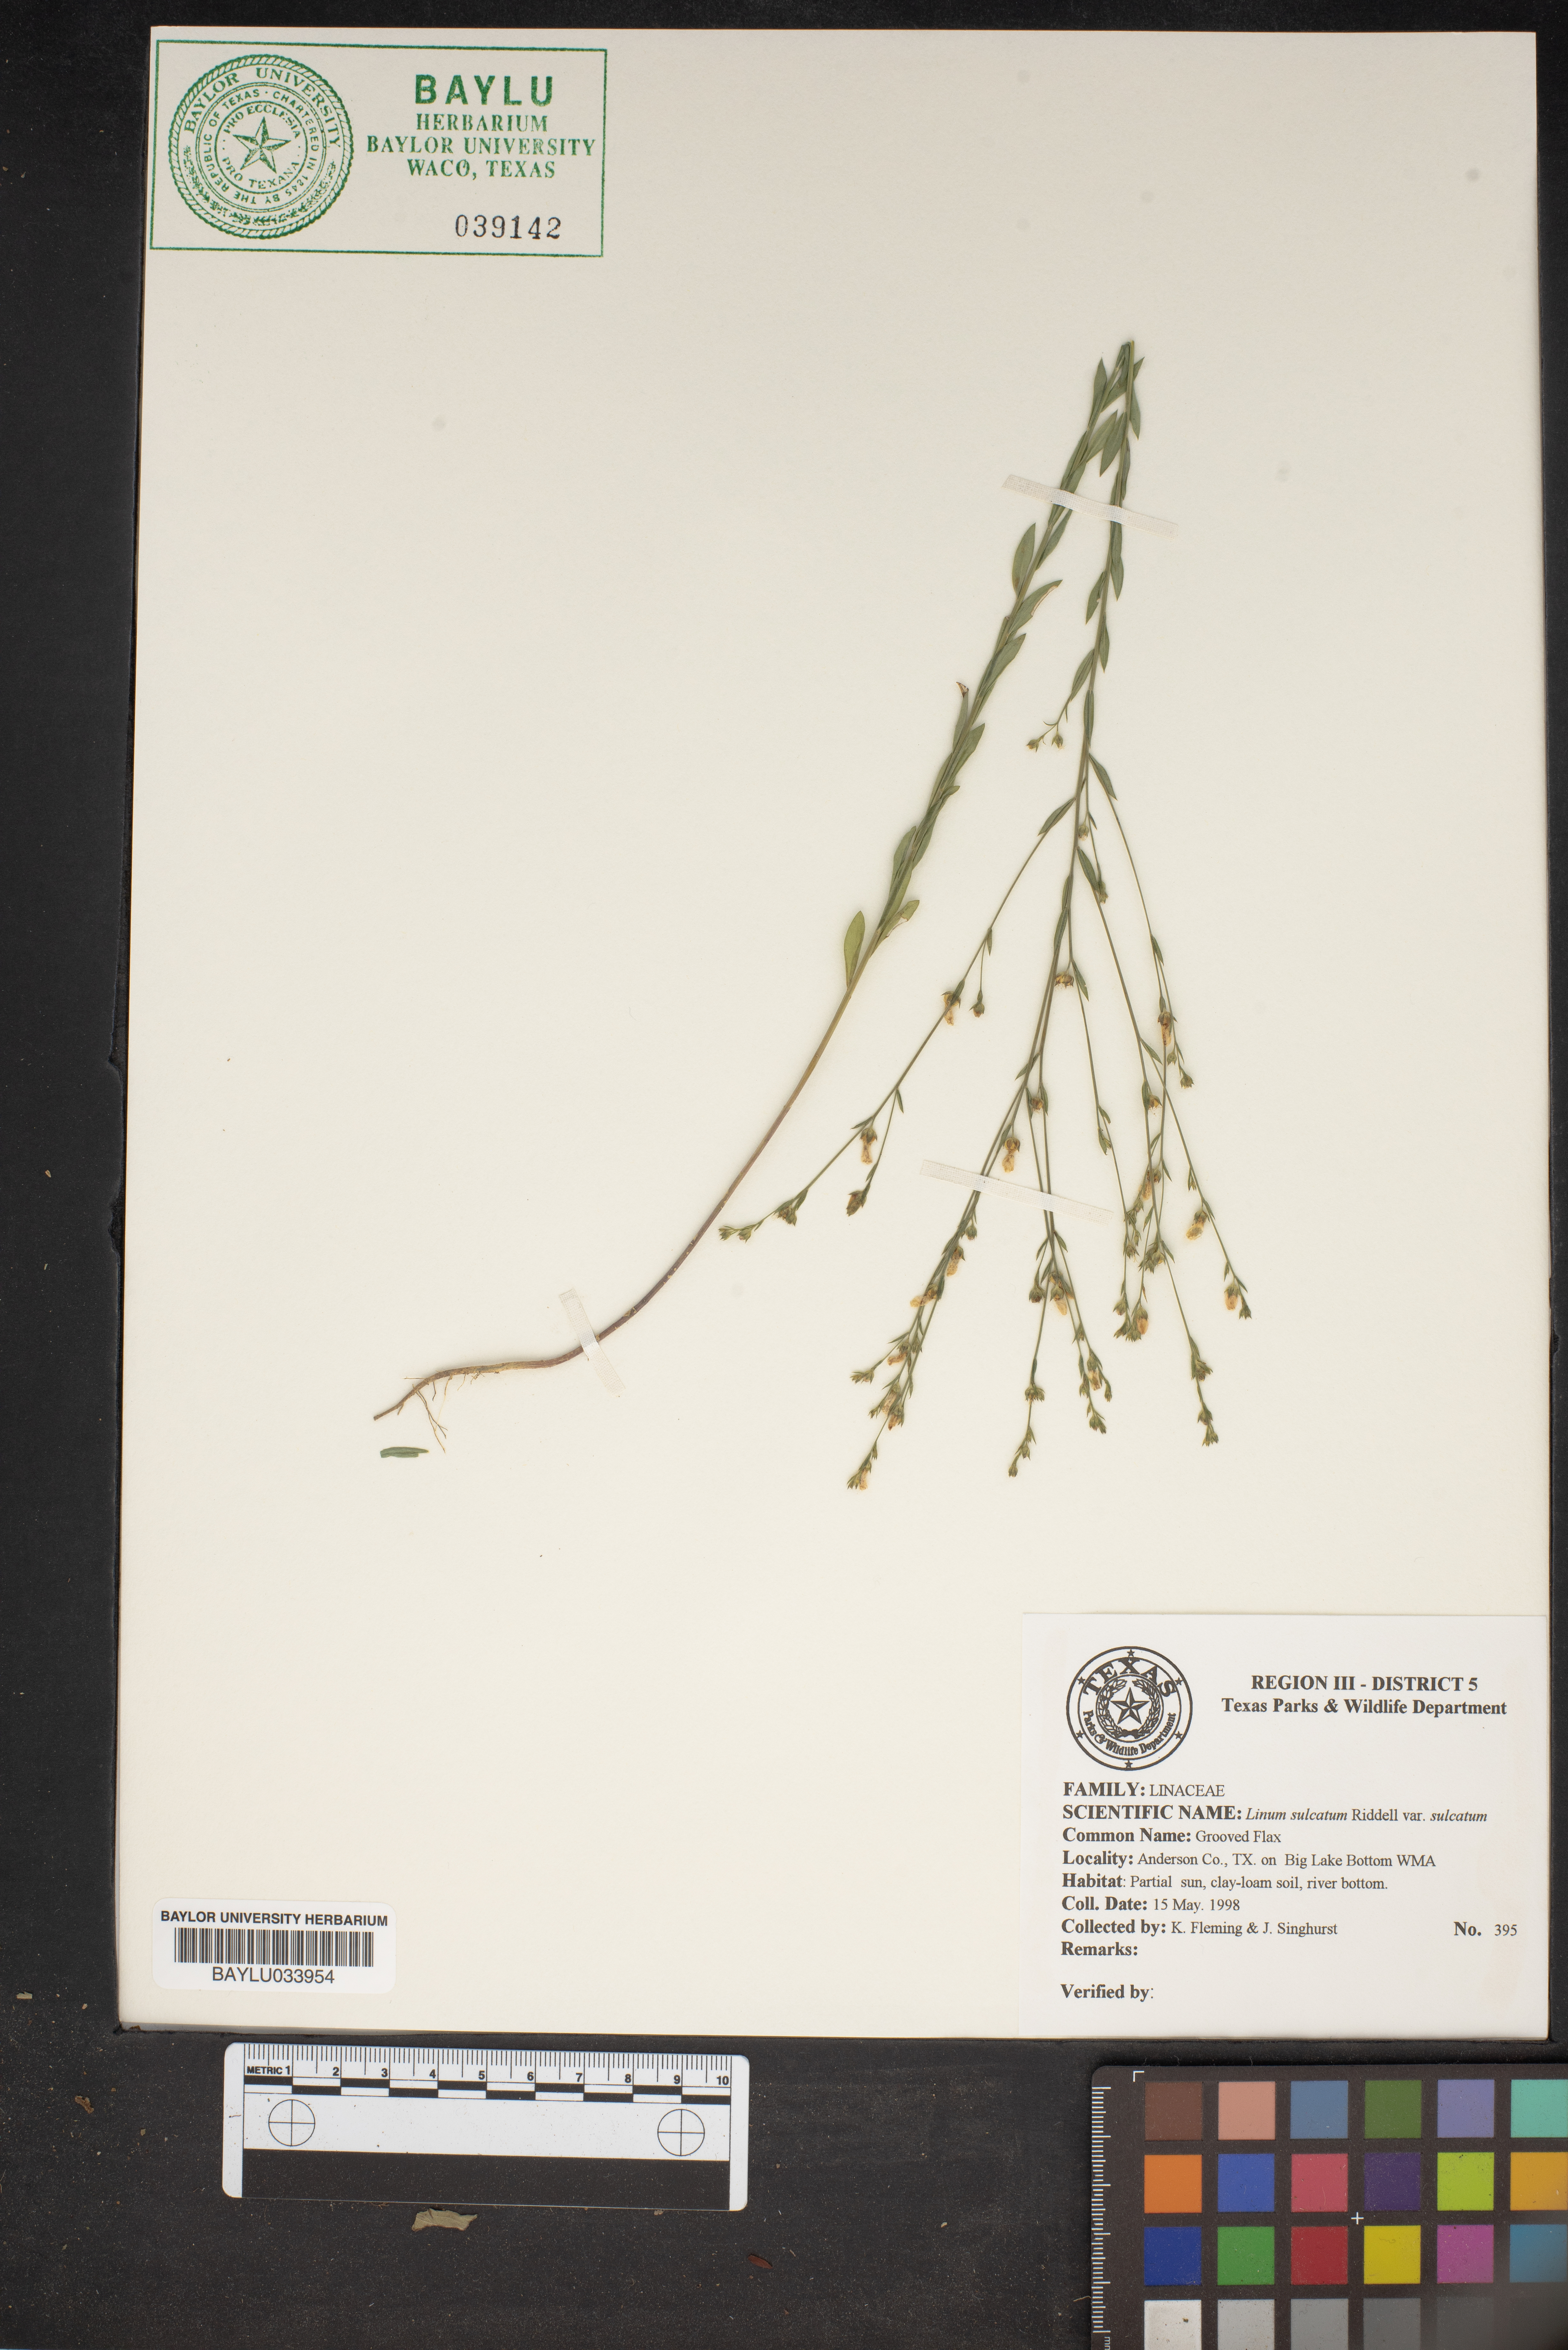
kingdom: Plantae
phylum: Tracheophyta
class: Magnoliopsida
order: Malpighiales
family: Linaceae
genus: Linum
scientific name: Linum sulcatum
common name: Grooved flax
